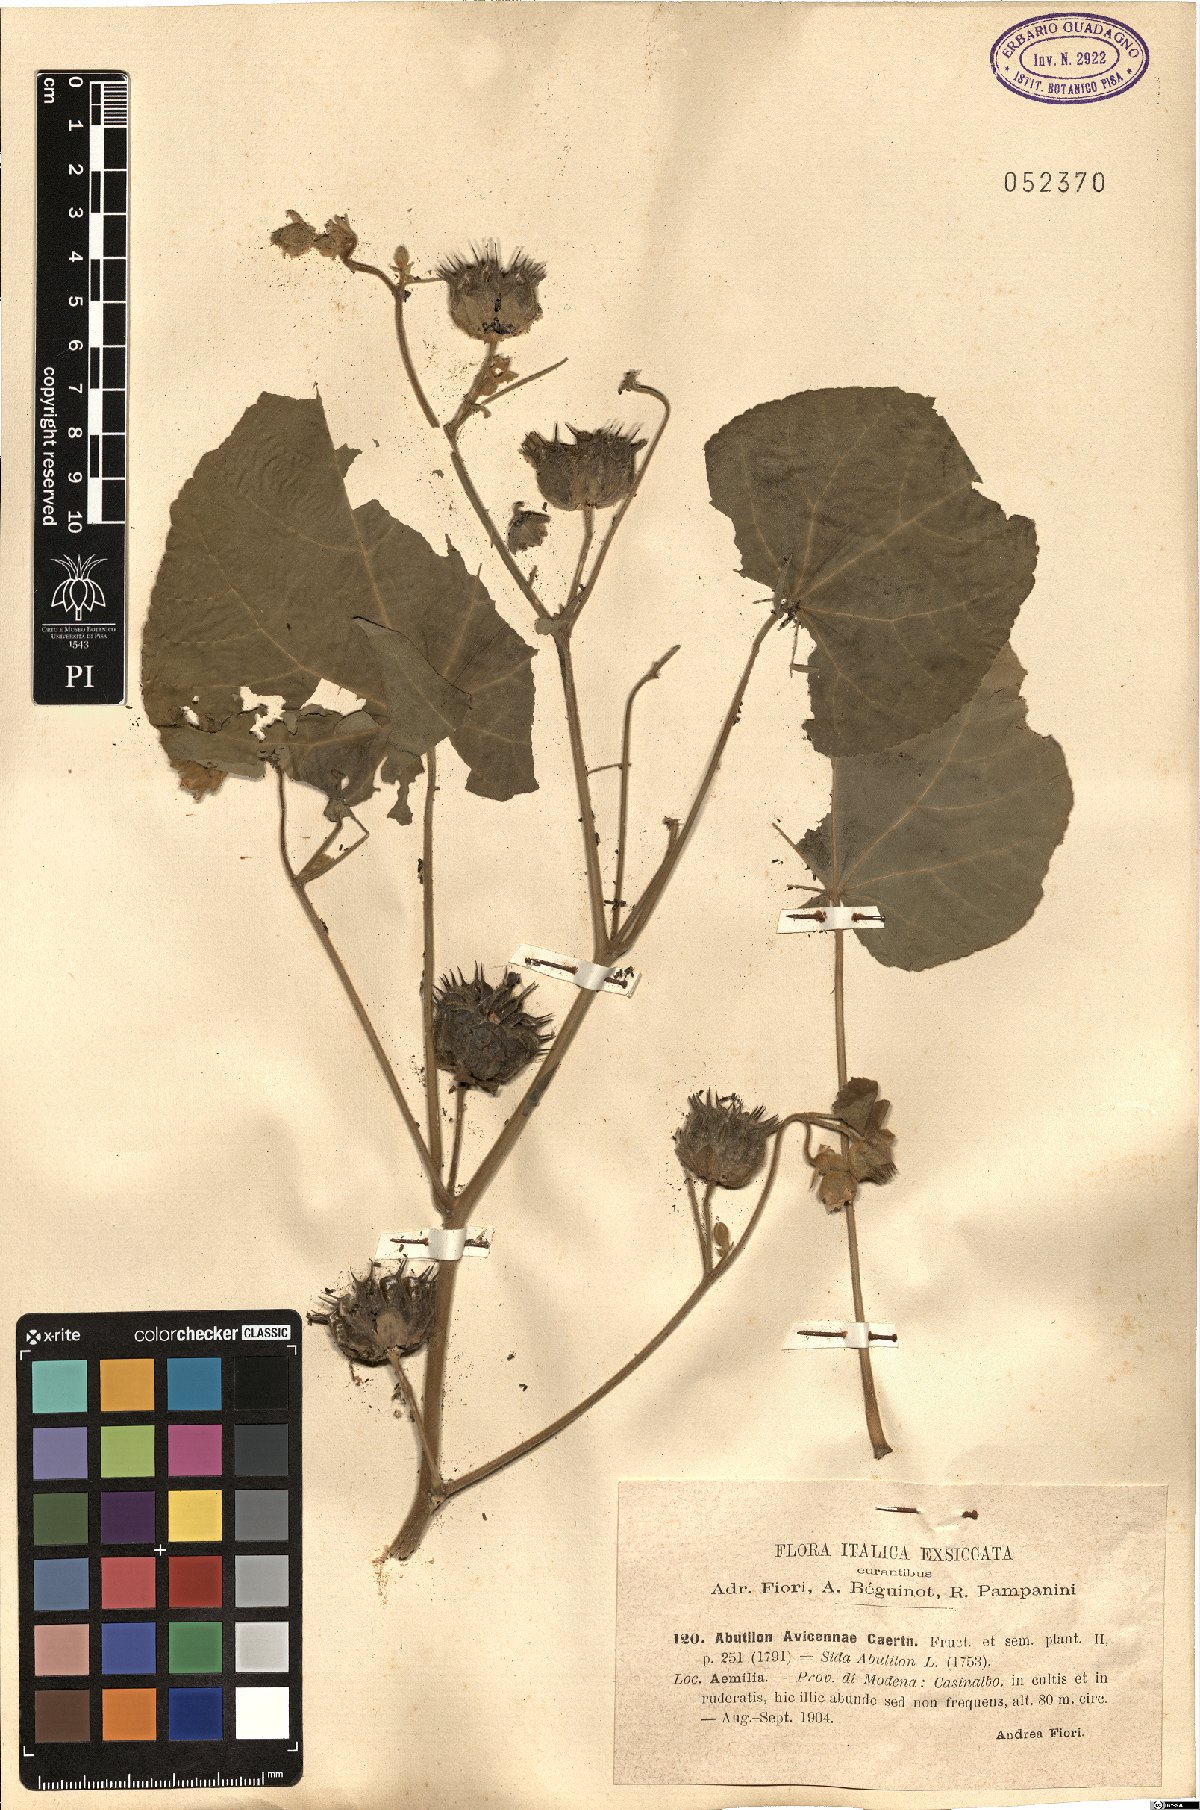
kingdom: Plantae
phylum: Tracheophyta
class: Magnoliopsida
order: Malvales
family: Malvaceae
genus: Abutilon
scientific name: Abutilon theophrasti
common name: Velvetleaf
